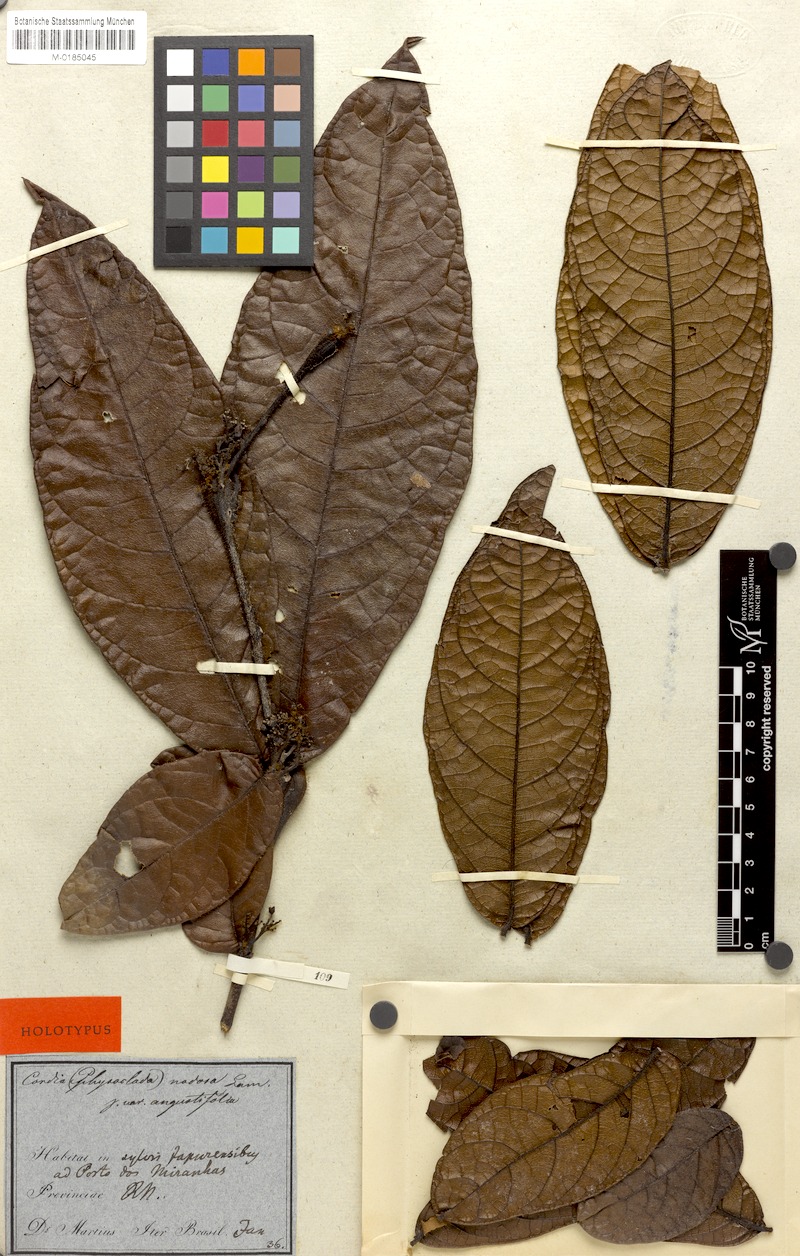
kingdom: Plantae
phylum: Tracheophyta
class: Magnoliopsida
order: Boraginales
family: Cordiaceae
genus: Cordia
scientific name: Cordia nodosa
